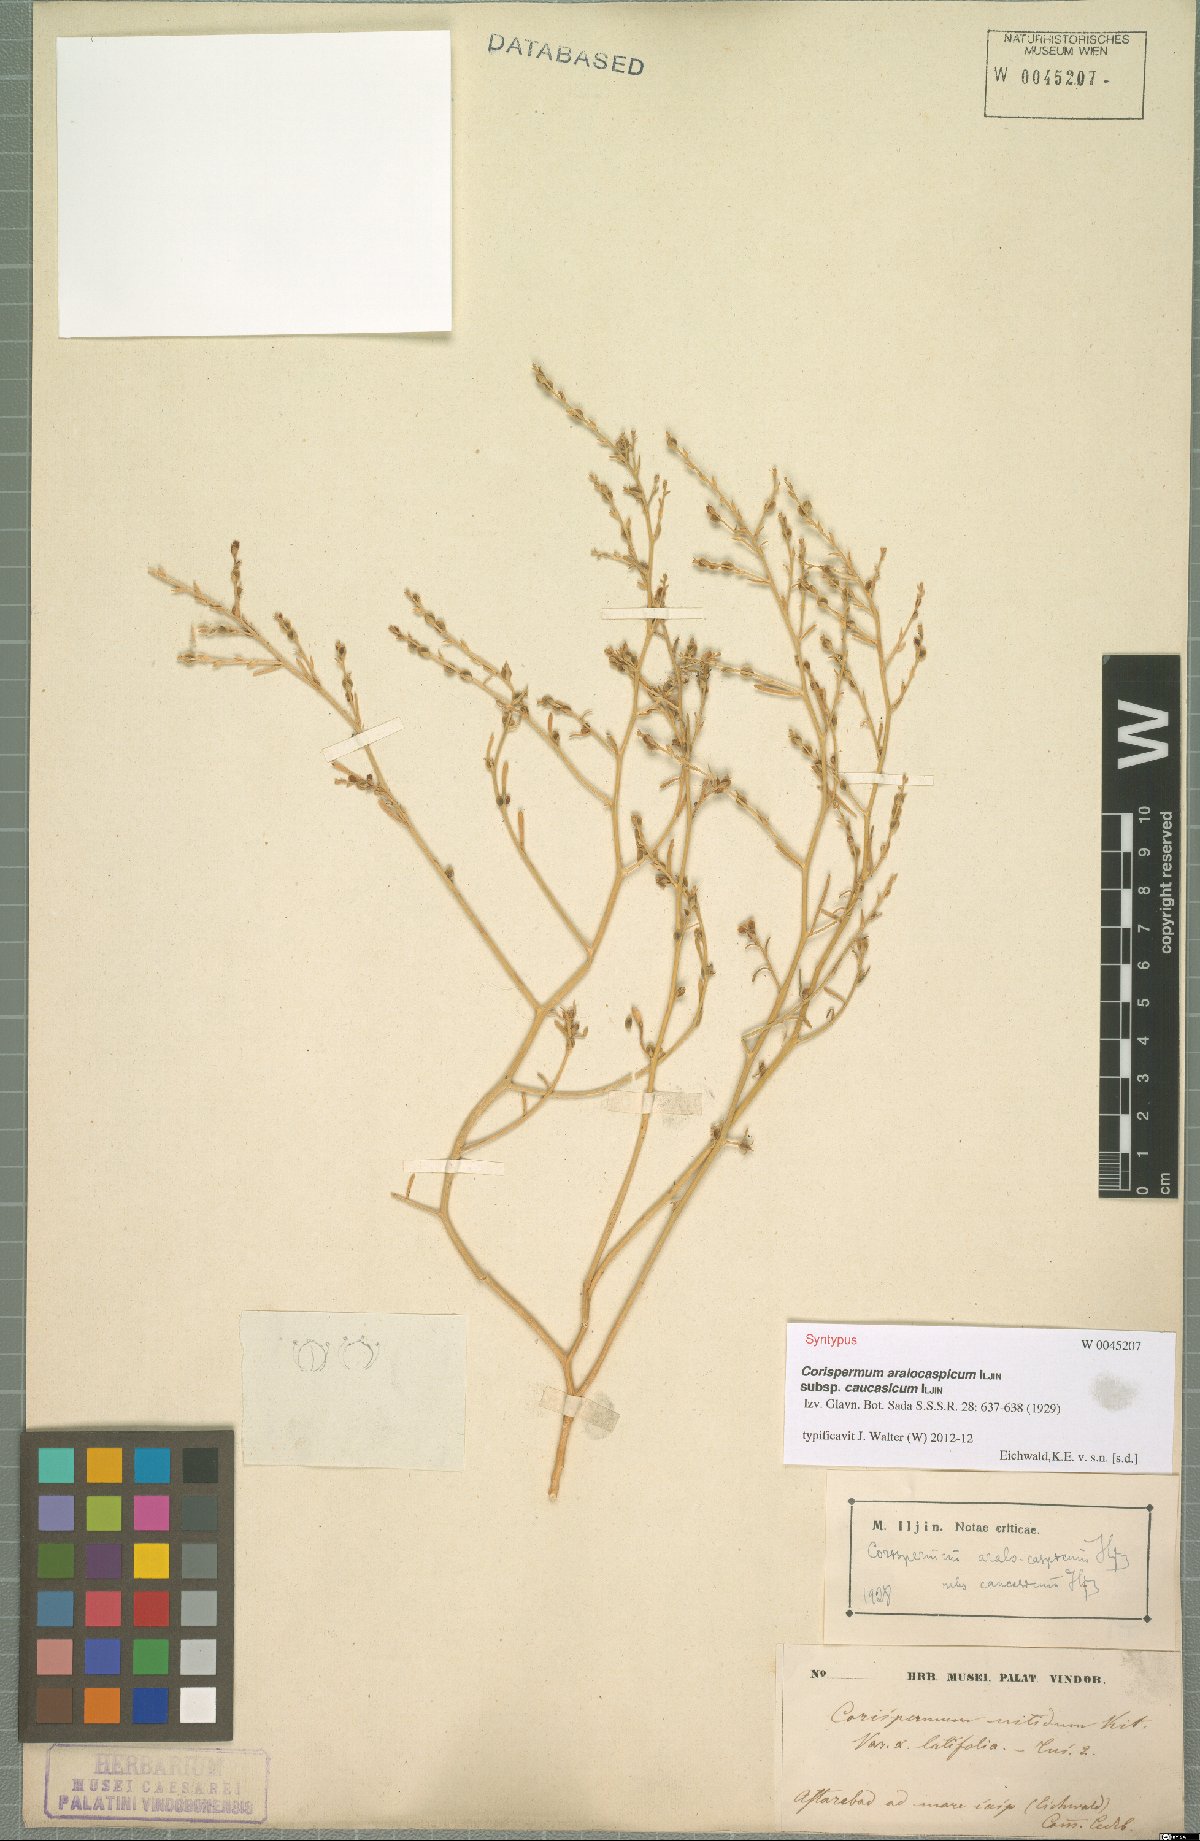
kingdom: Plantae
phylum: Tracheophyta
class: Magnoliopsida
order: Caryophyllales
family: Amaranthaceae
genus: Corispermum
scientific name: Corispermum aralocaspicum
